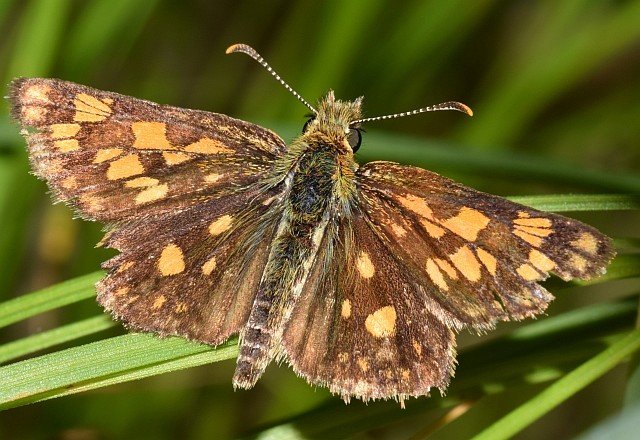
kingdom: Animalia
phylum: Arthropoda
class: Insecta
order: Lepidoptera
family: Hesperiidae
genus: Carterocephalus
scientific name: Carterocephalus palaemon
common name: Chequered Skipper
